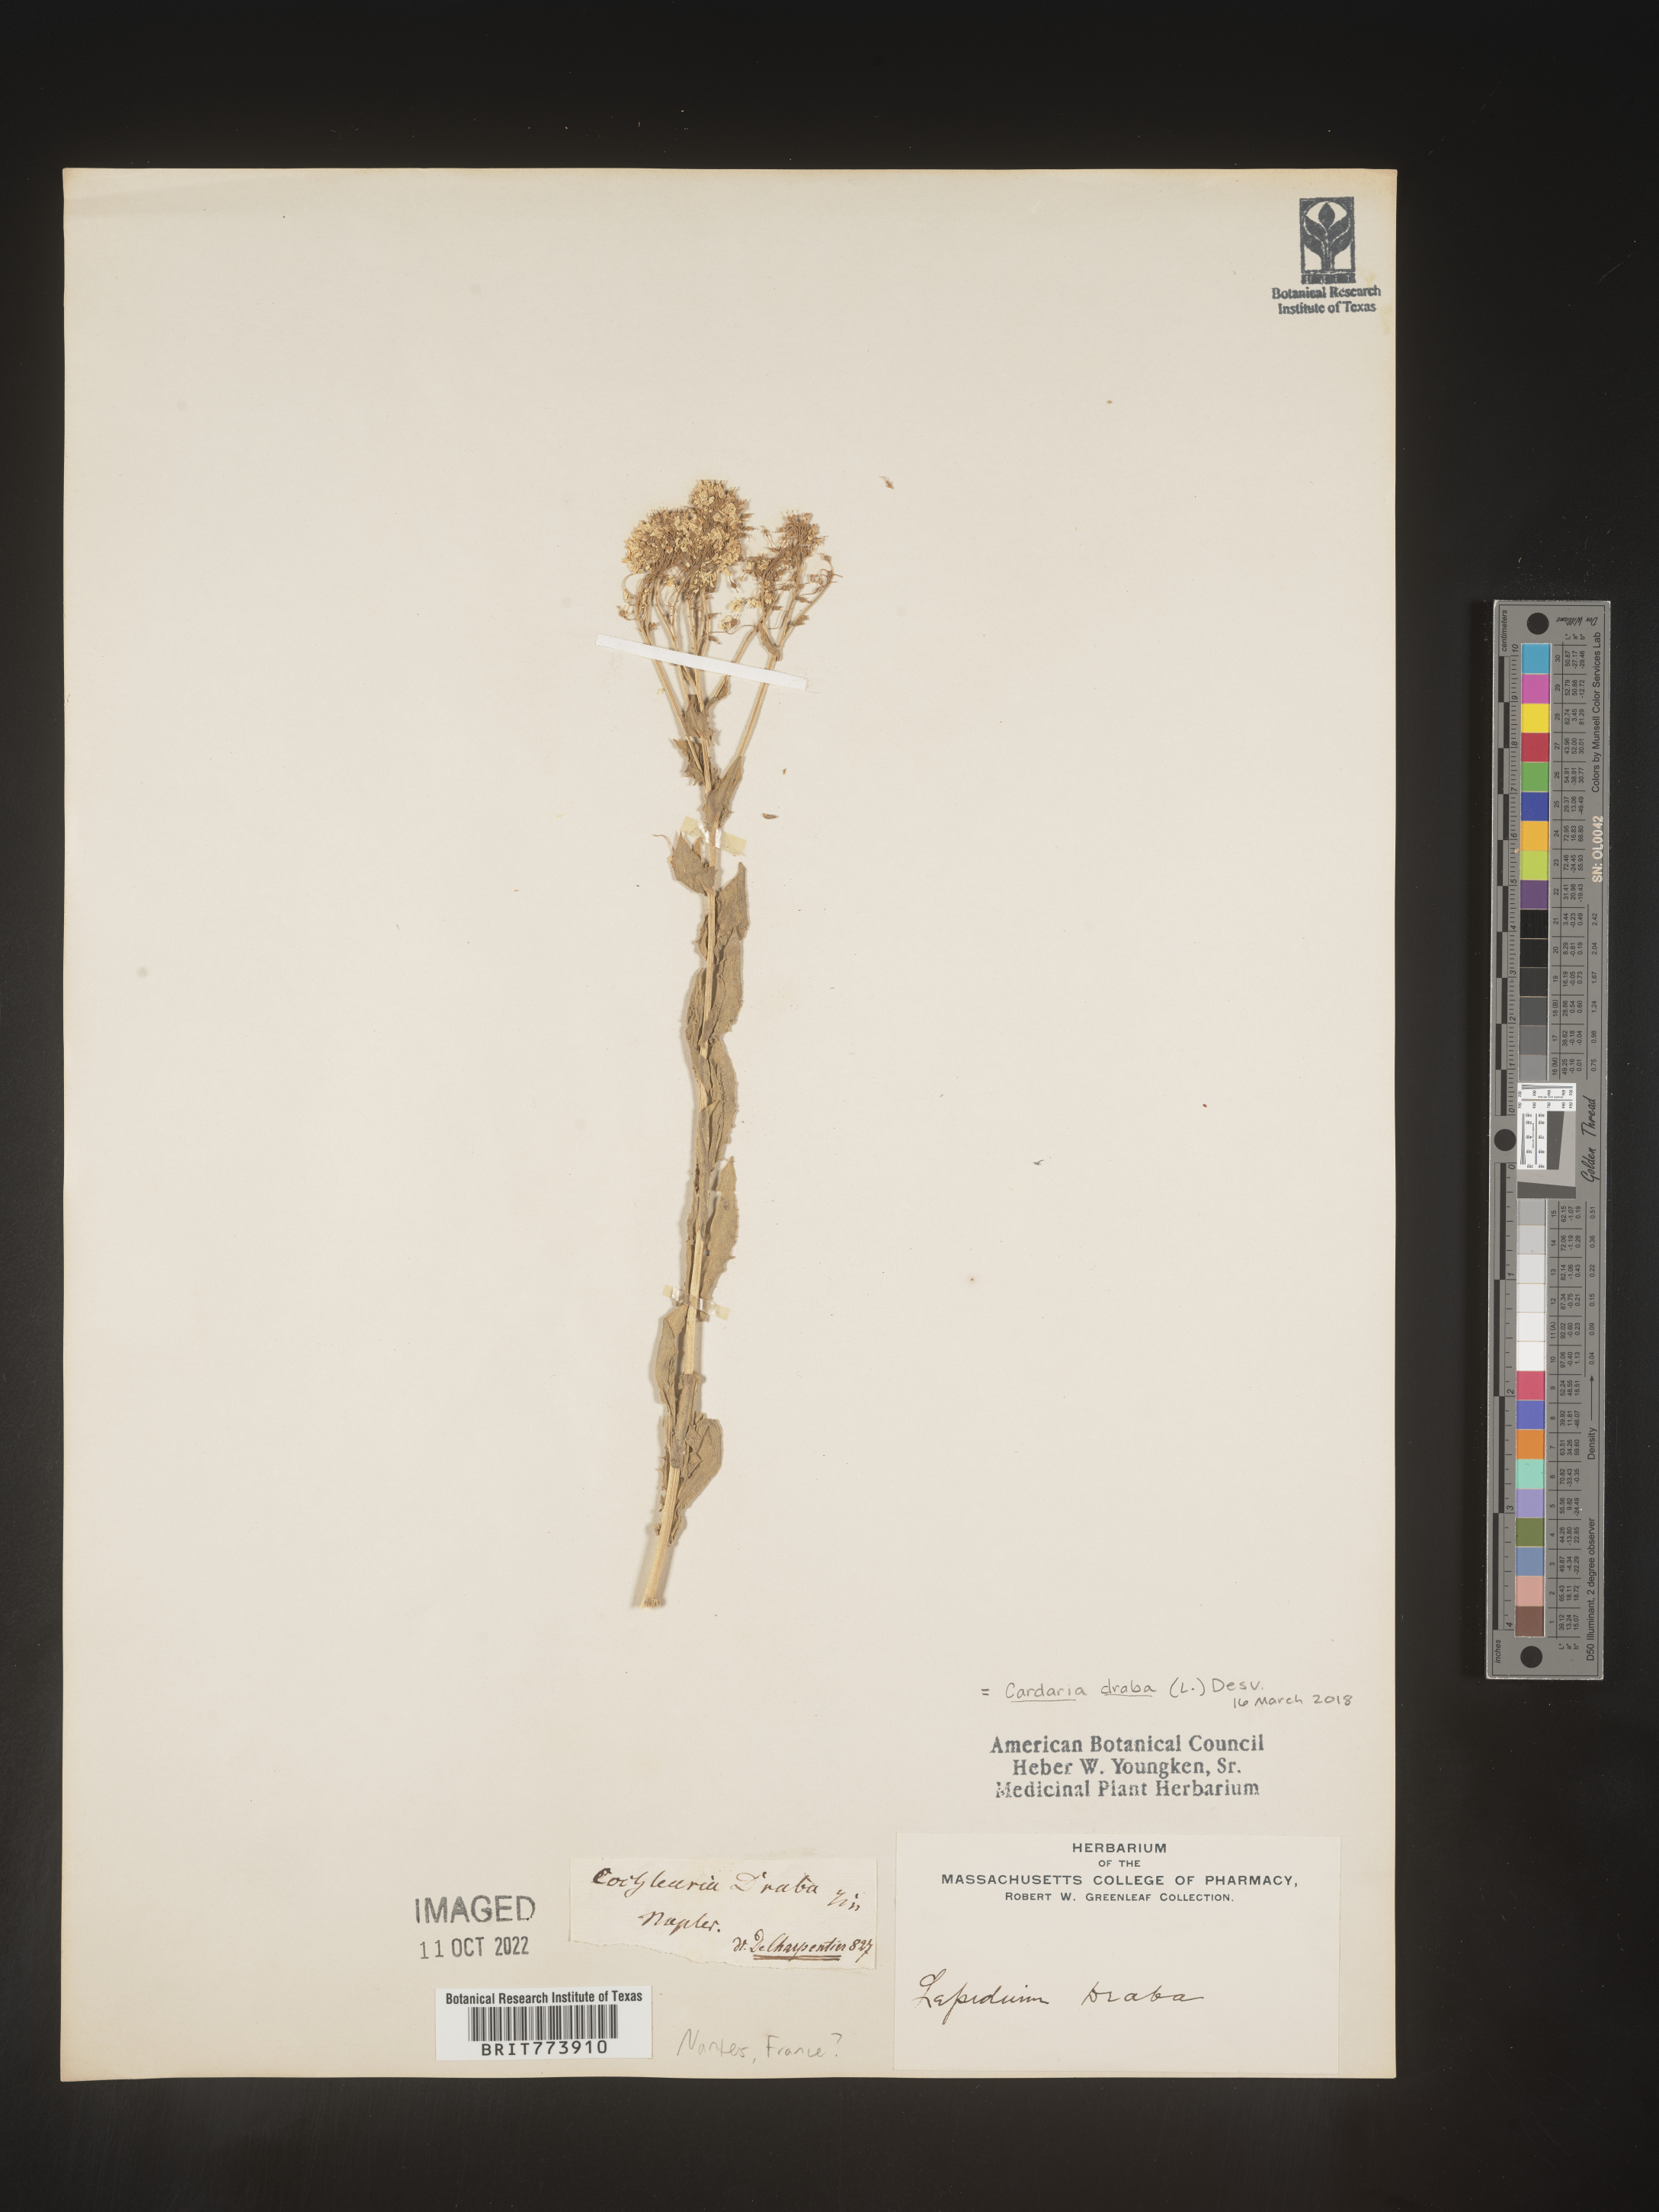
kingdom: Plantae
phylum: Tracheophyta
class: Magnoliopsida
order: Brassicales
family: Brassicaceae
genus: Lepidium
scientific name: Lepidium
